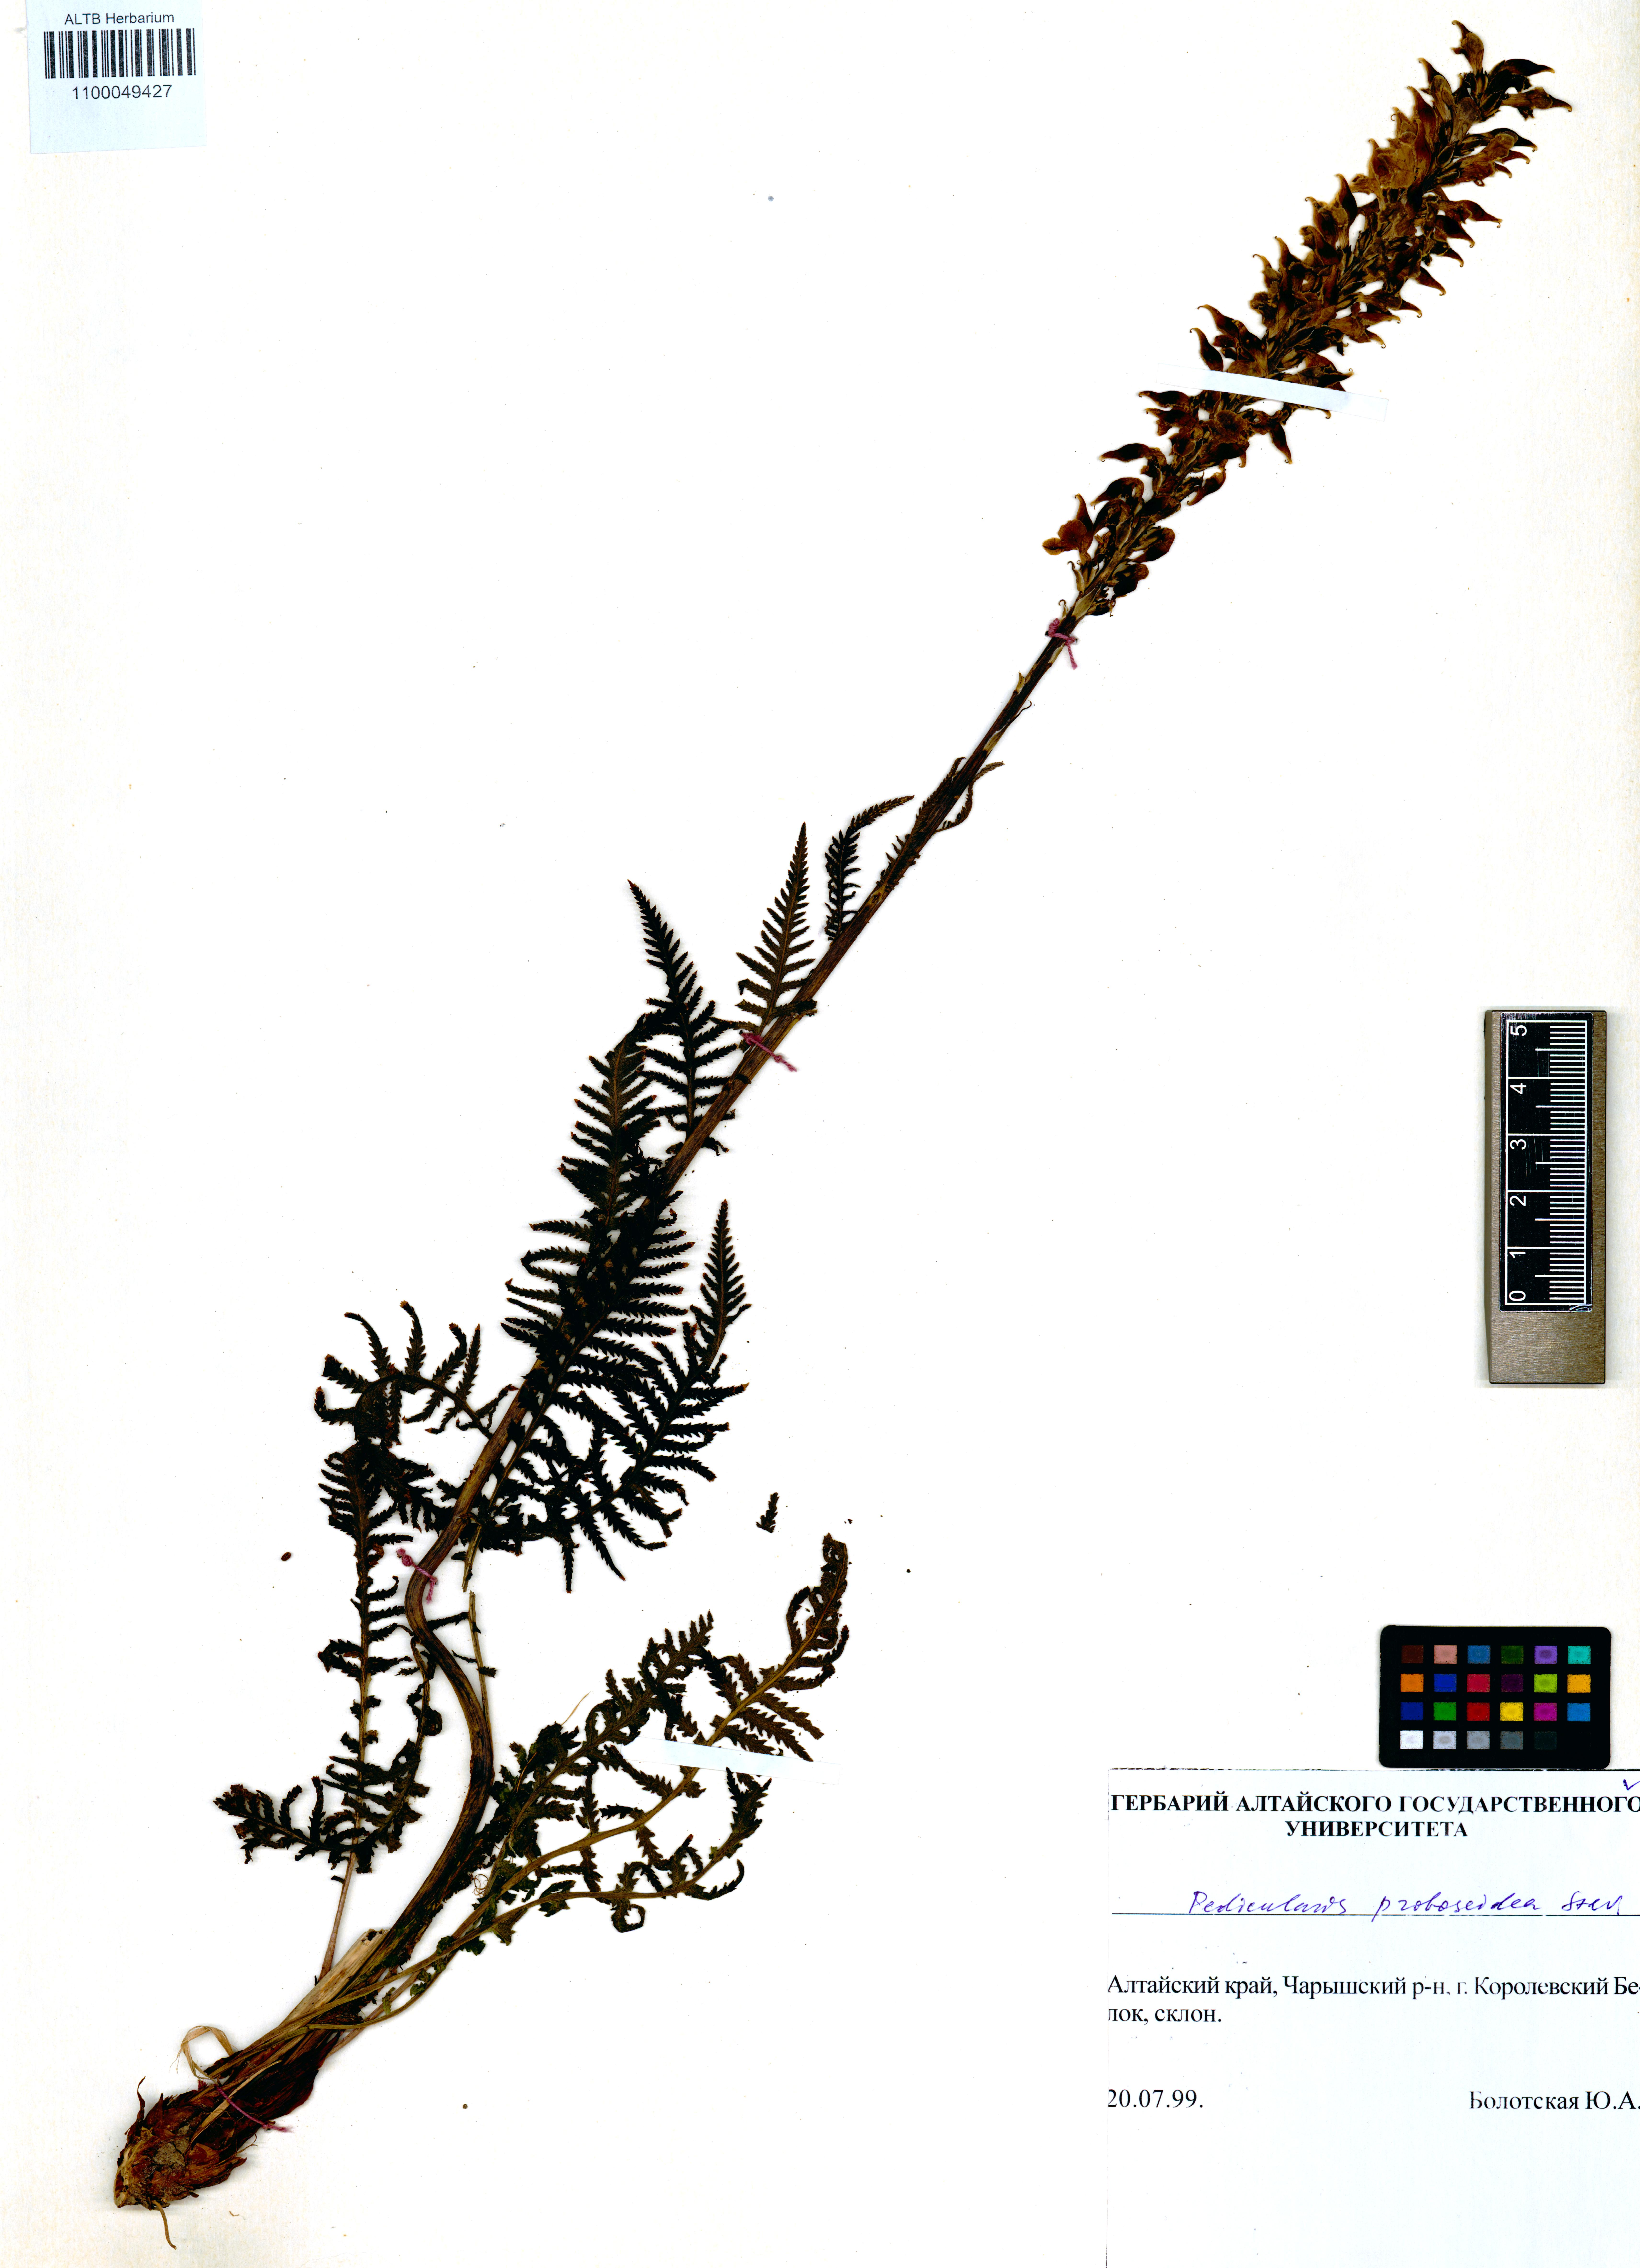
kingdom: Plantae
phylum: Tracheophyta
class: Magnoliopsida
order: Lamiales
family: Orobanchaceae
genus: Pedicularis
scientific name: Pedicularis proboscidea
